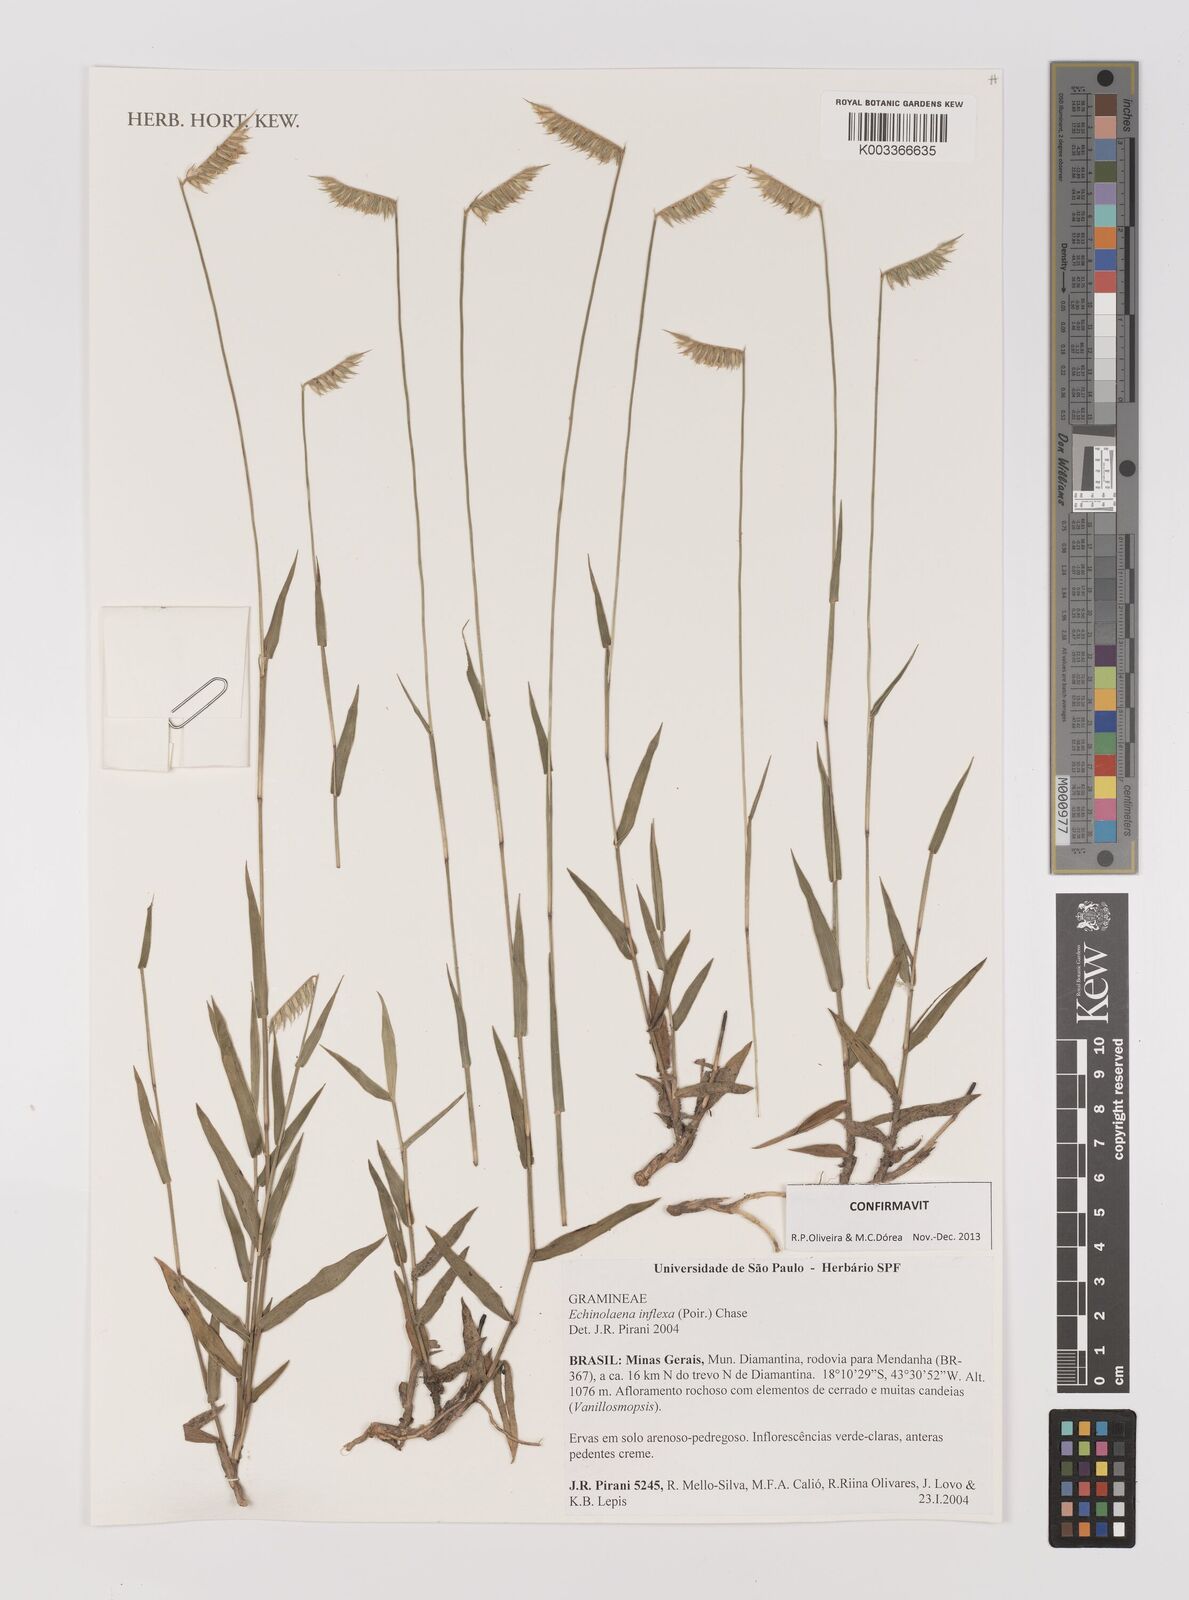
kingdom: Plantae
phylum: Tracheophyta
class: Liliopsida
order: Poales
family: Poaceae
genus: Echinolaena
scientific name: Echinolaena inflexa
